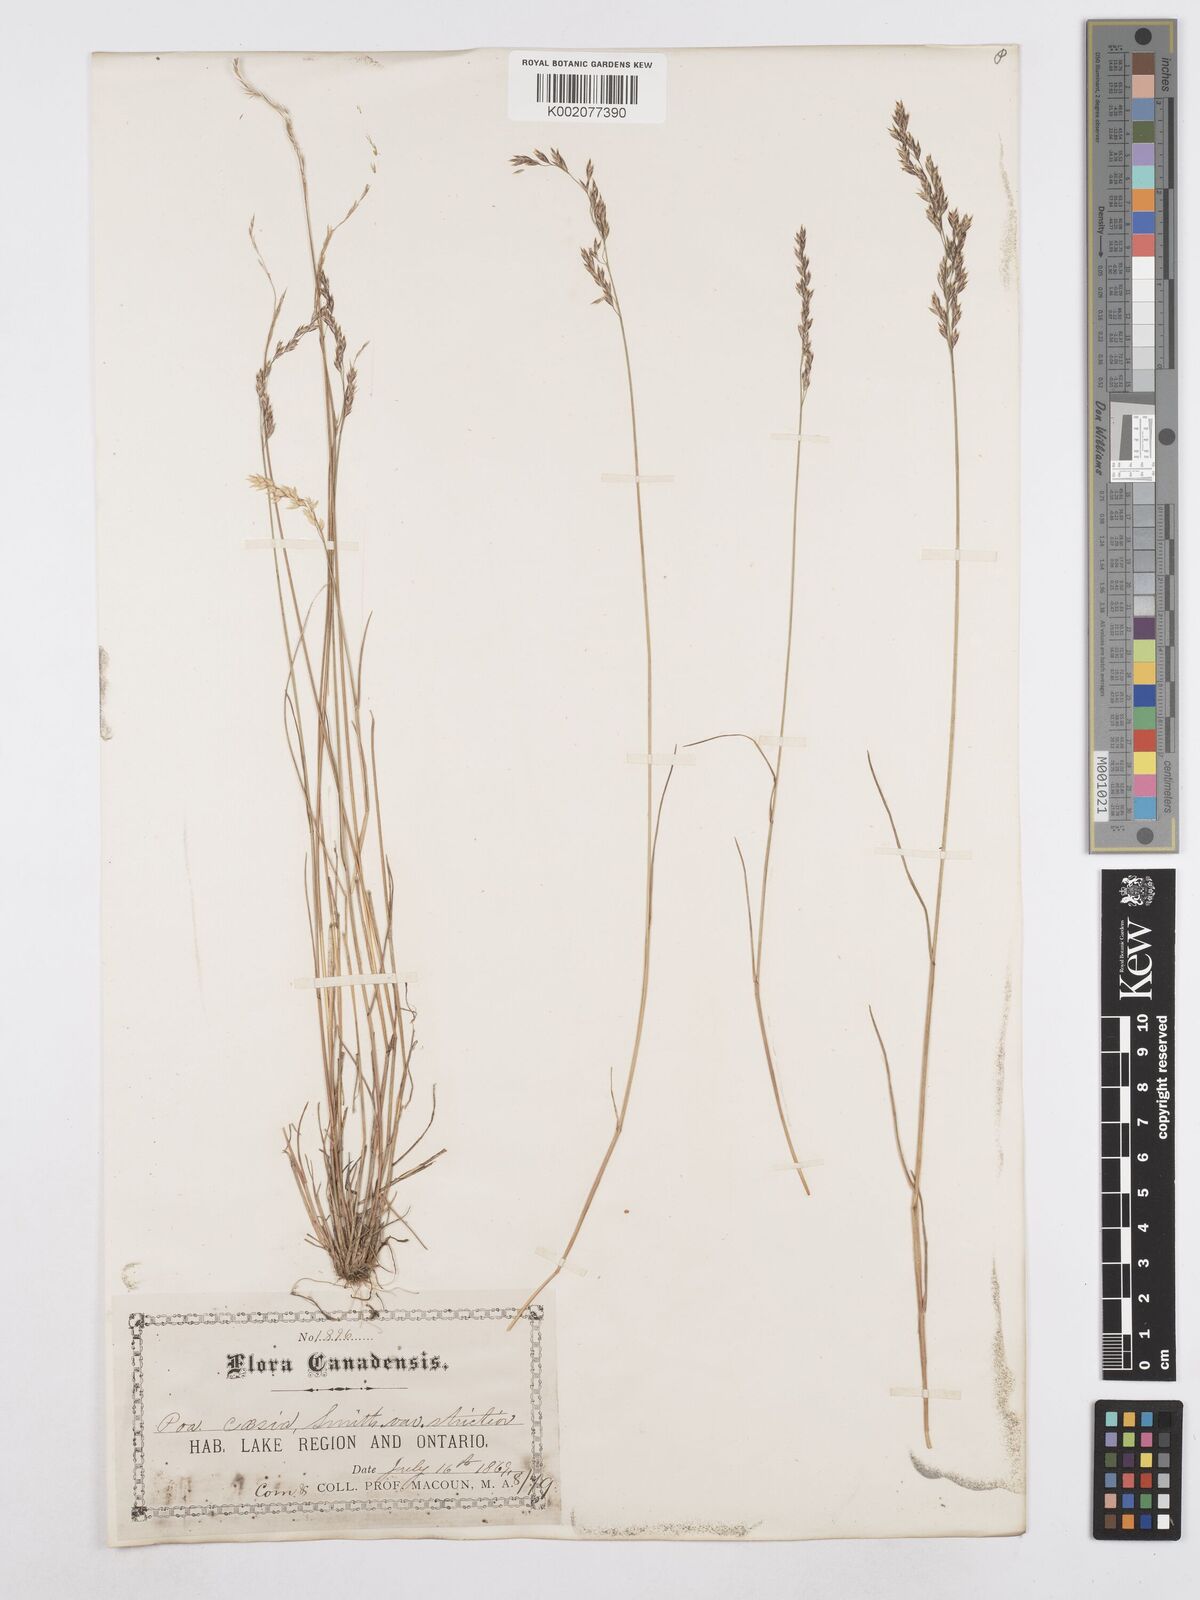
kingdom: Plantae
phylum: Tracheophyta
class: Liliopsida
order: Poales
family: Poaceae
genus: Poa
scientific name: Poa glauca
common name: Glaucous bluegrass
